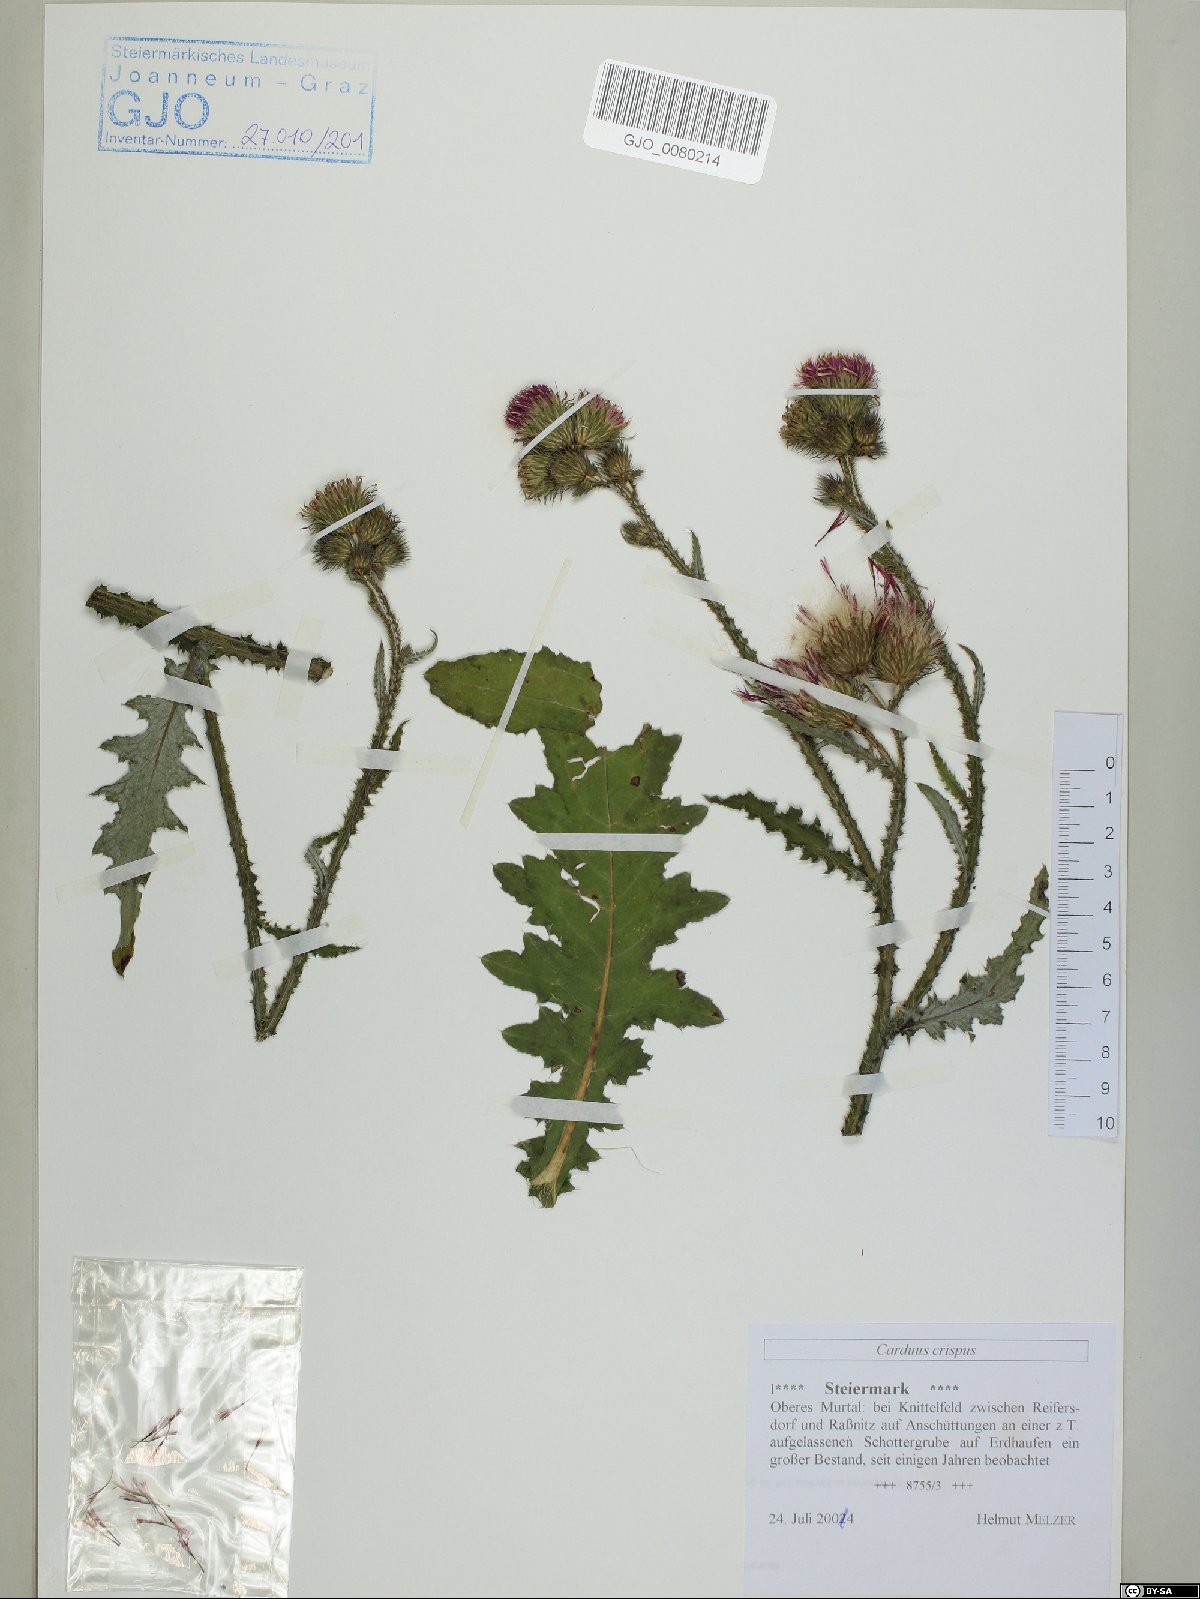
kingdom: Plantae
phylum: Tracheophyta
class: Magnoliopsida
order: Asterales
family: Asteraceae
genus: Carduus
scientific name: Carduus crispus
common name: Welted thistle
